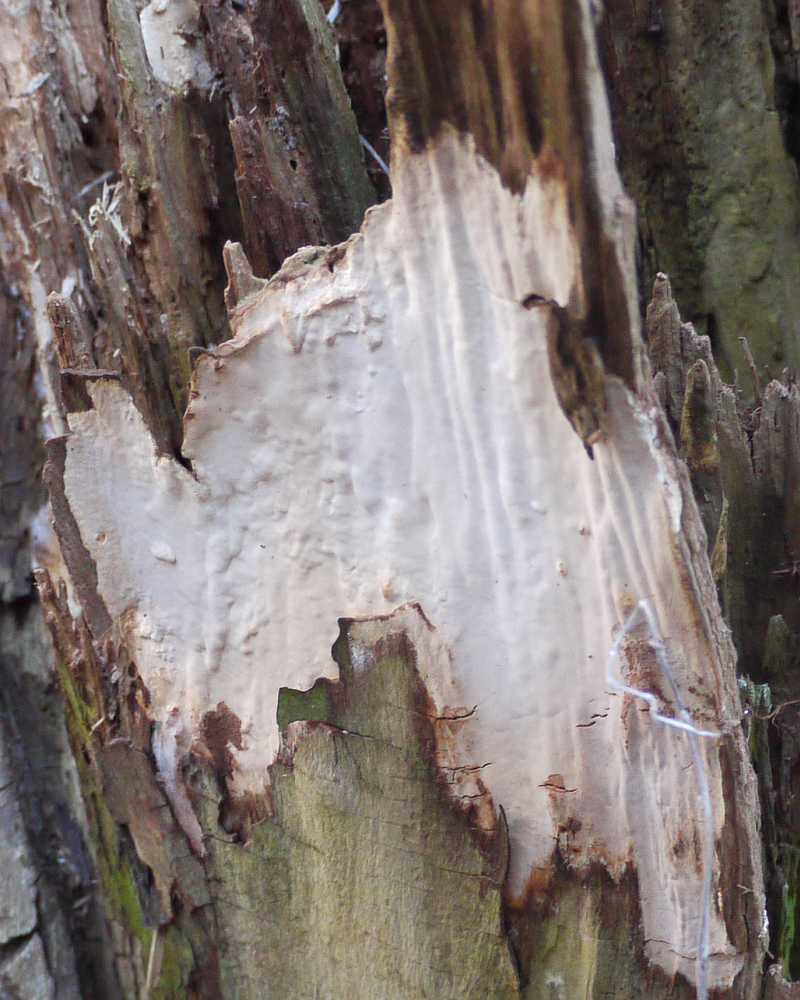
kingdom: Fungi
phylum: Basidiomycota
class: Agaricomycetes
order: Russulales
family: Peniophoraceae
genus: Scytinostroma
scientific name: Scytinostroma hemidichophyticum
